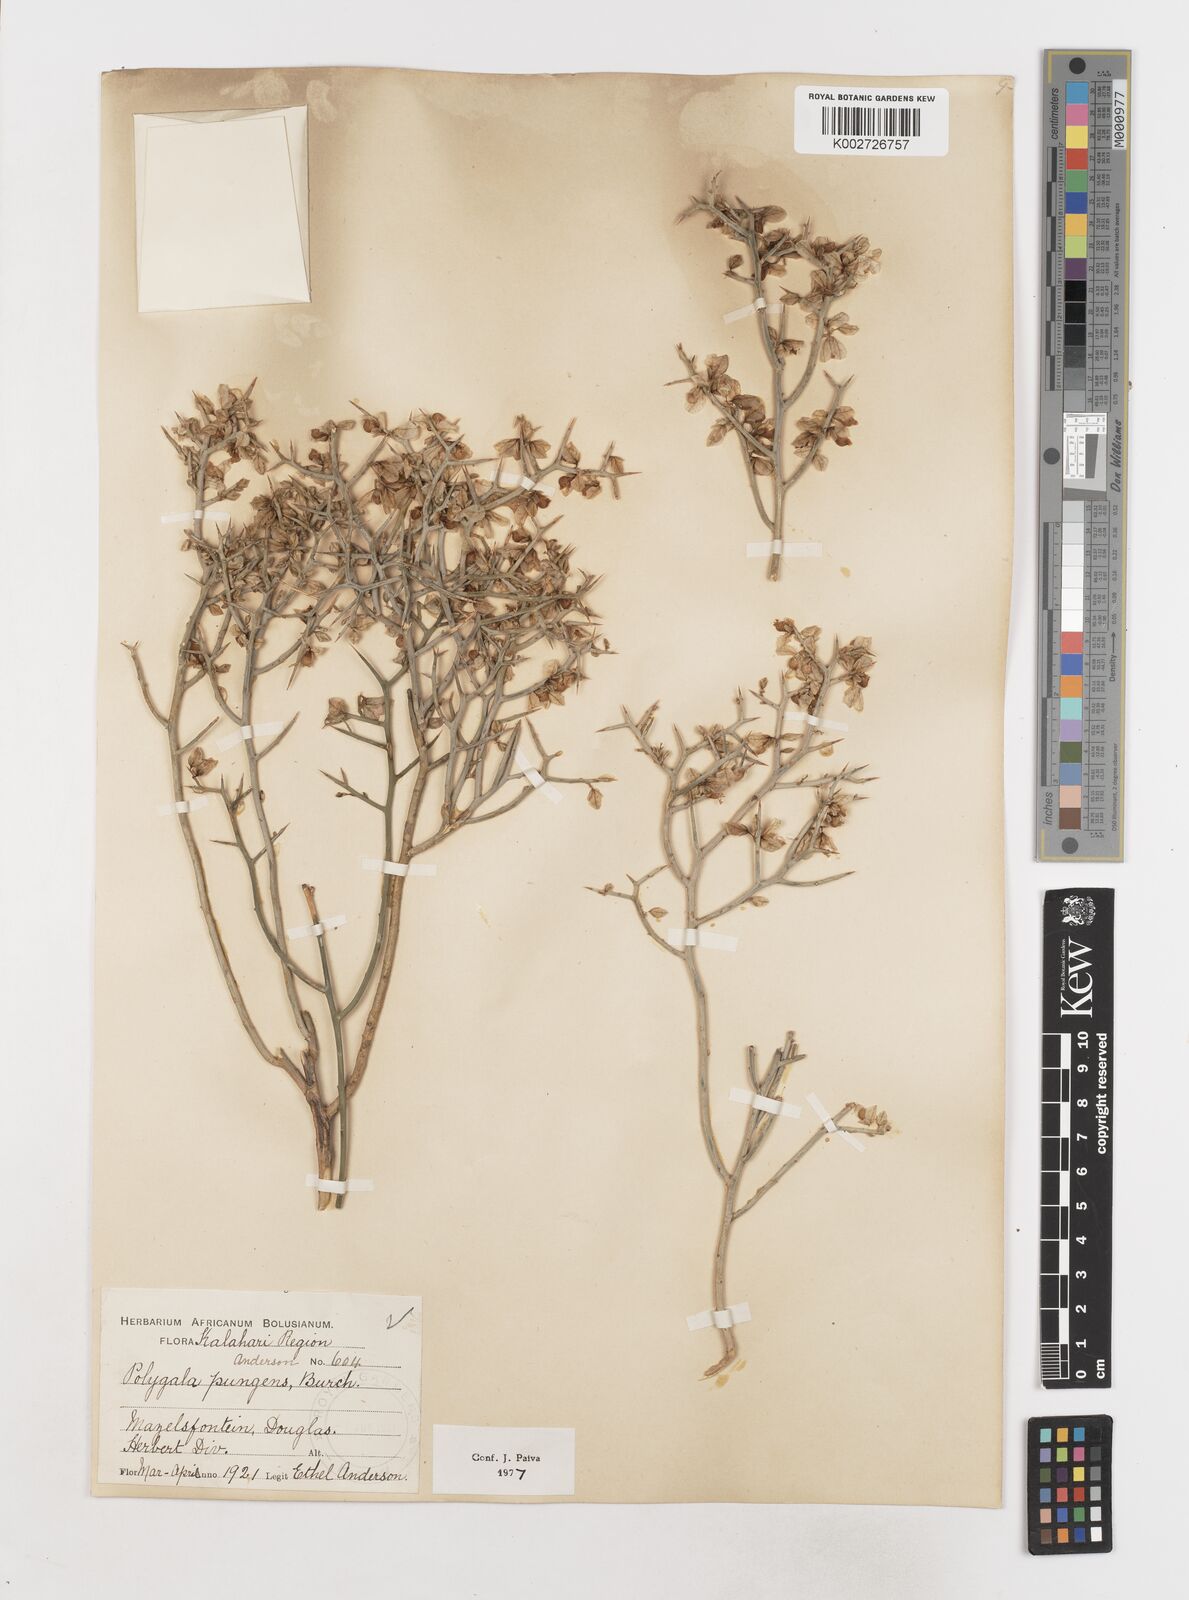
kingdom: Plantae
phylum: Tracheophyta
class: Magnoliopsida
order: Fabales
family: Polygalaceae
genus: Polygala
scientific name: Polygala pungens
